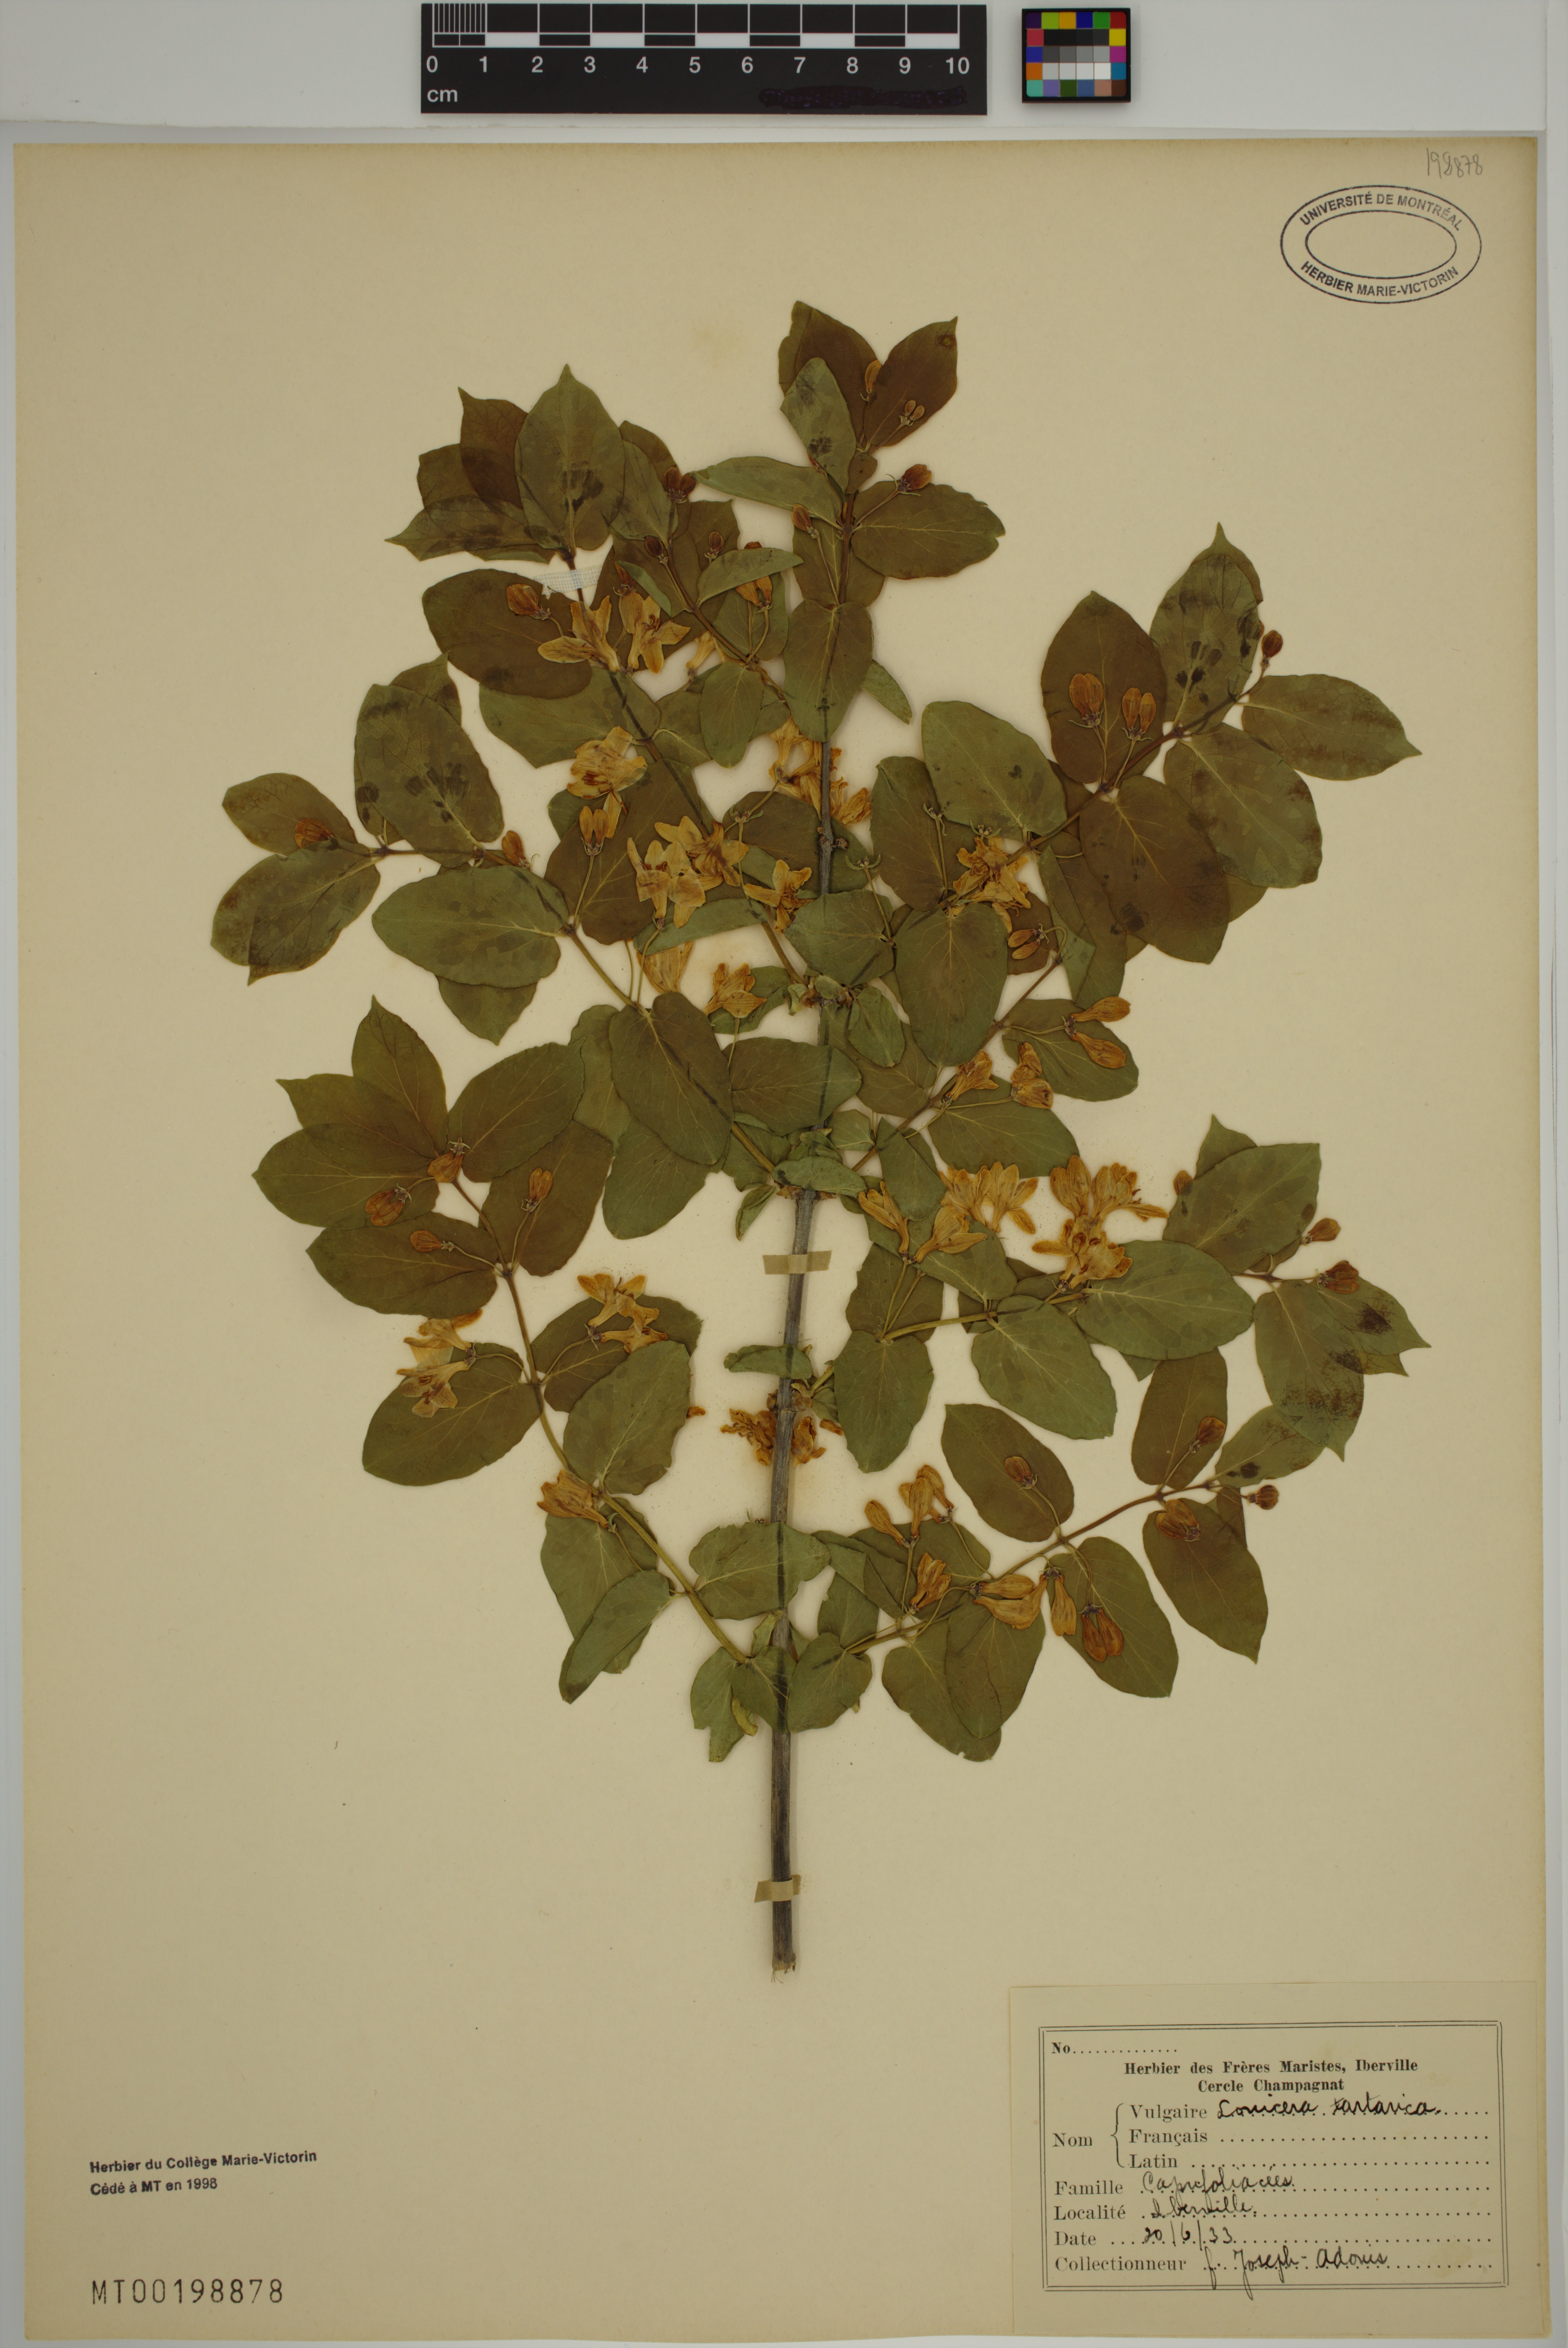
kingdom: Plantae
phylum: Tracheophyta
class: Magnoliopsida
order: Dipsacales
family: Caprifoliaceae
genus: Lonicera
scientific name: Lonicera tatarica
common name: Tatarian honeysuckle
